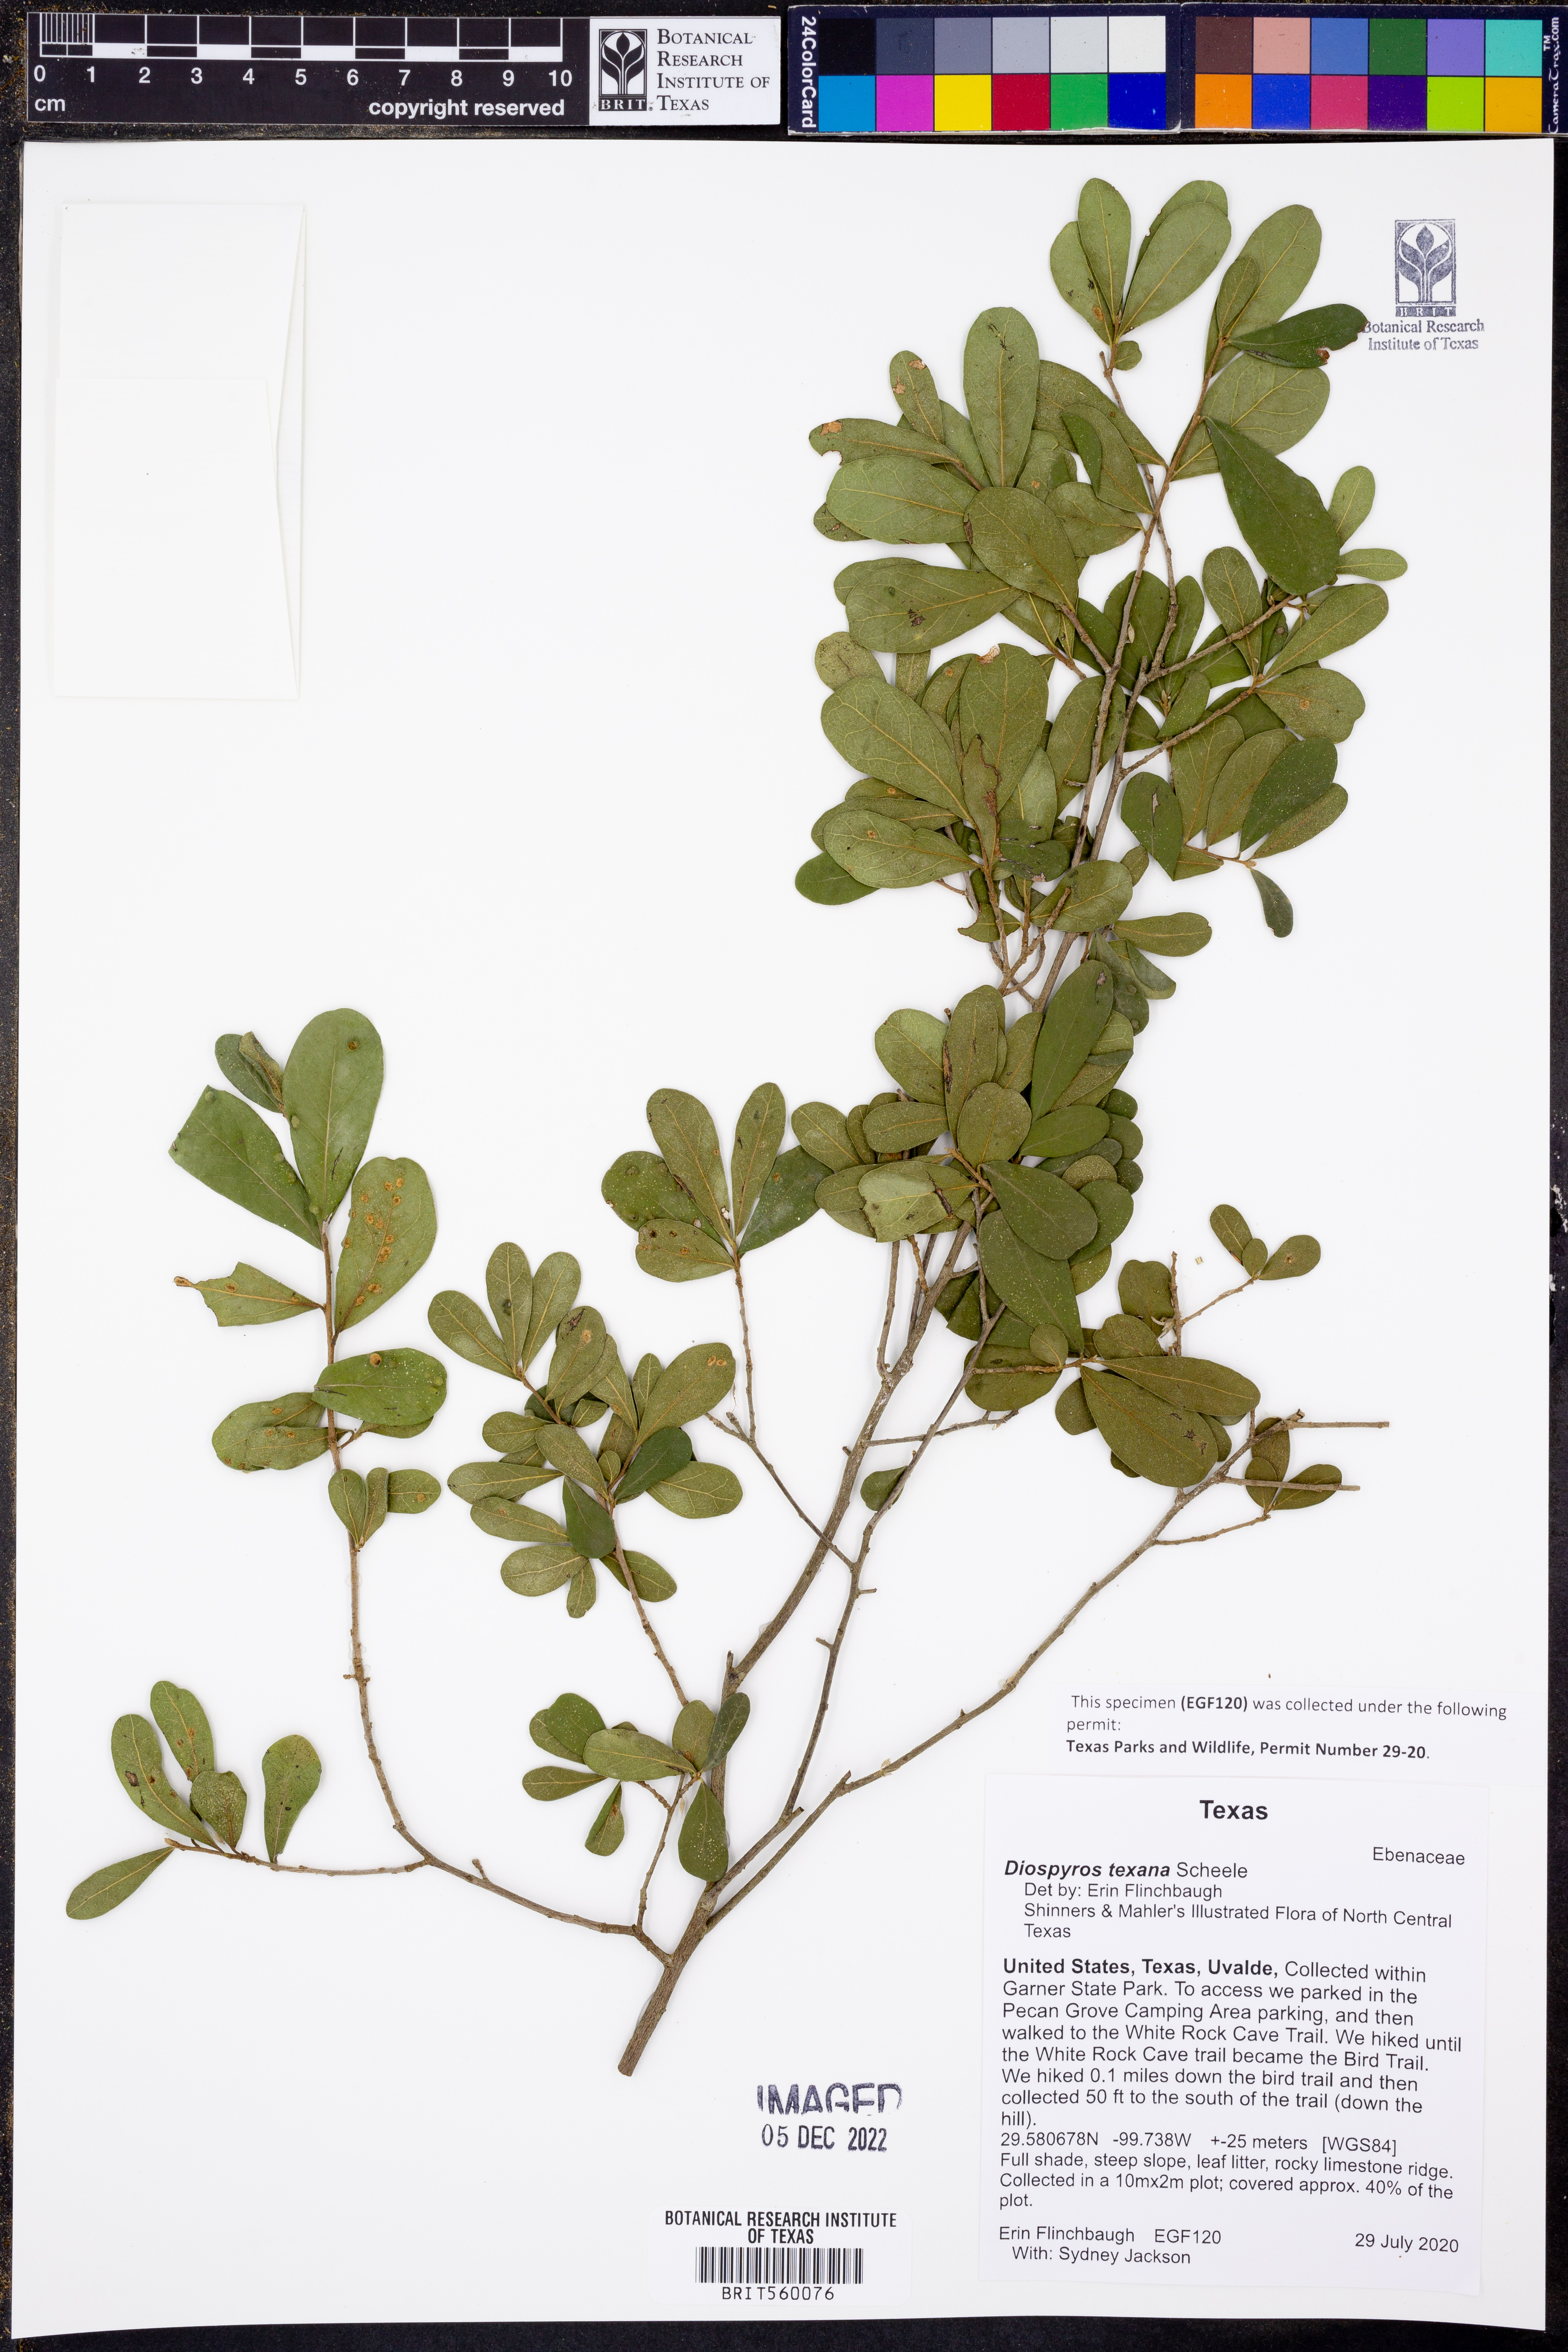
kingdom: Plantae
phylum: Tracheophyta
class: Magnoliopsida
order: Ericales
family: Ebenaceae
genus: Diospyros
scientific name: Diospyros texana
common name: Texas persimmon
